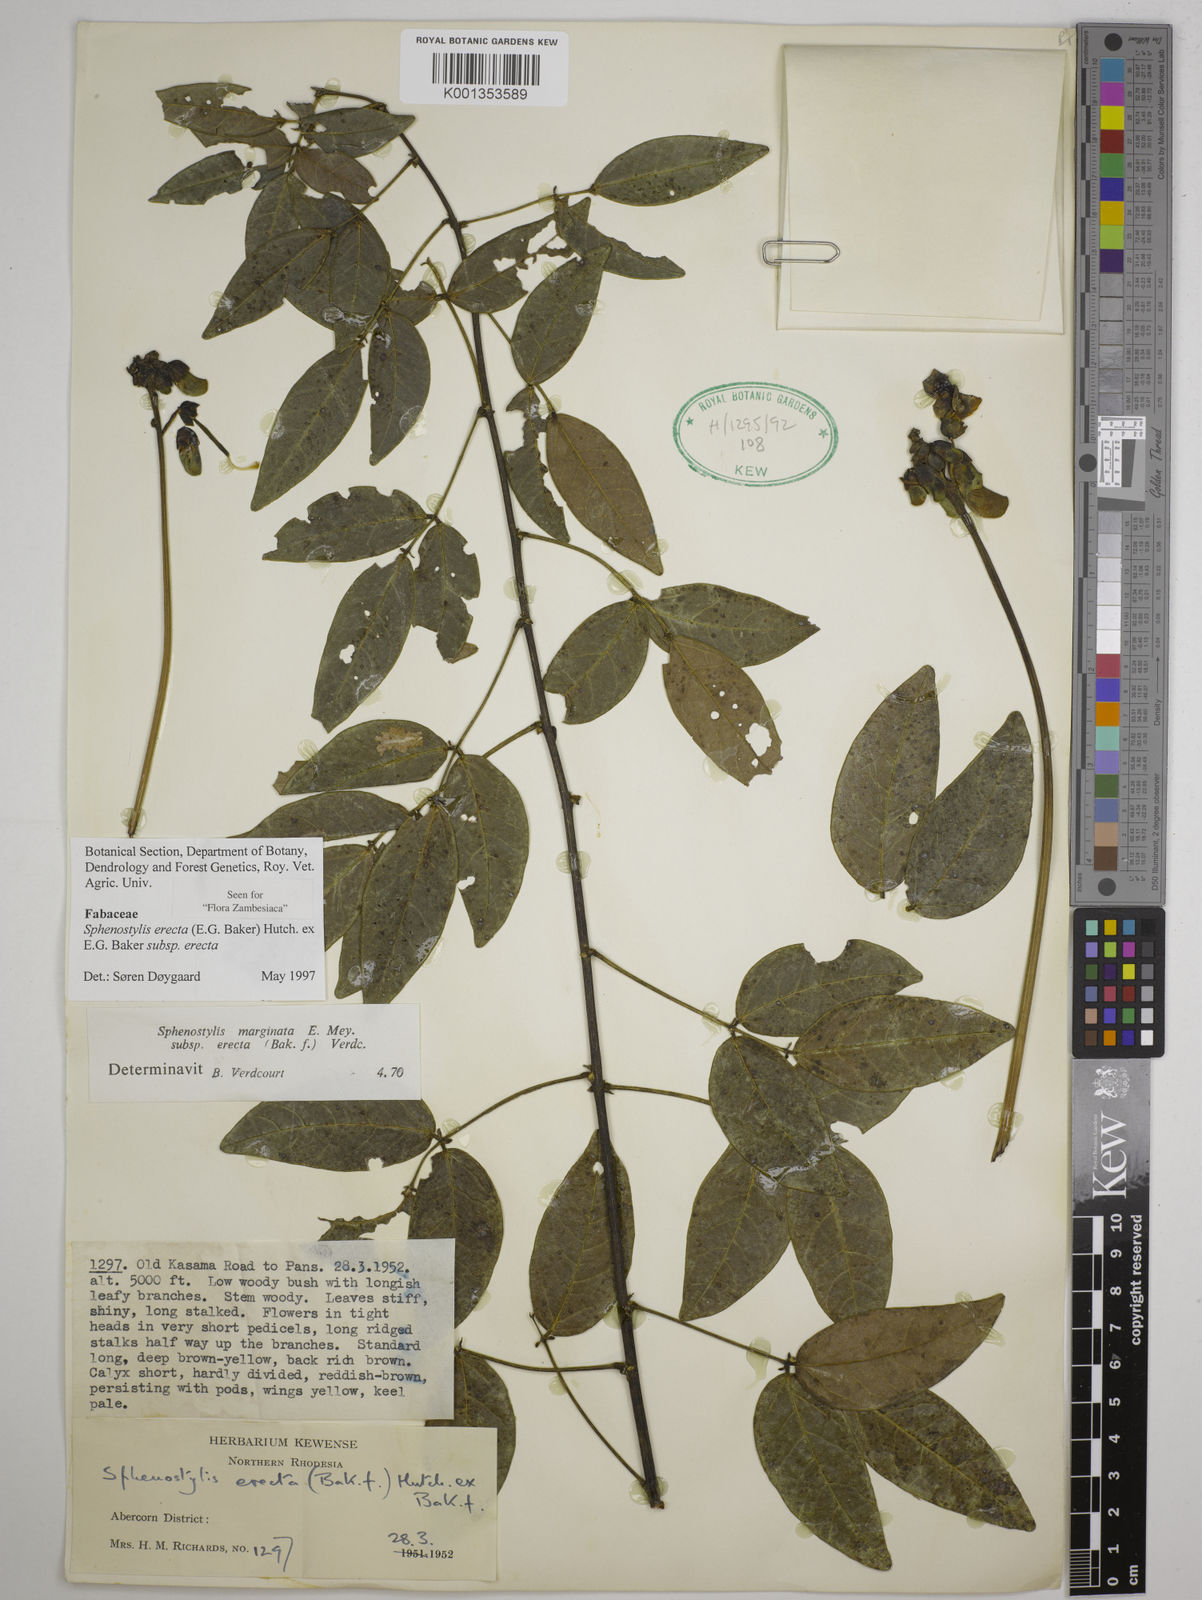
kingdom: Plantae
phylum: Tracheophyta
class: Magnoliopsida
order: Fabales
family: Fabaceae
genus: Sphenostylis
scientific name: Sphenostylis erecta
